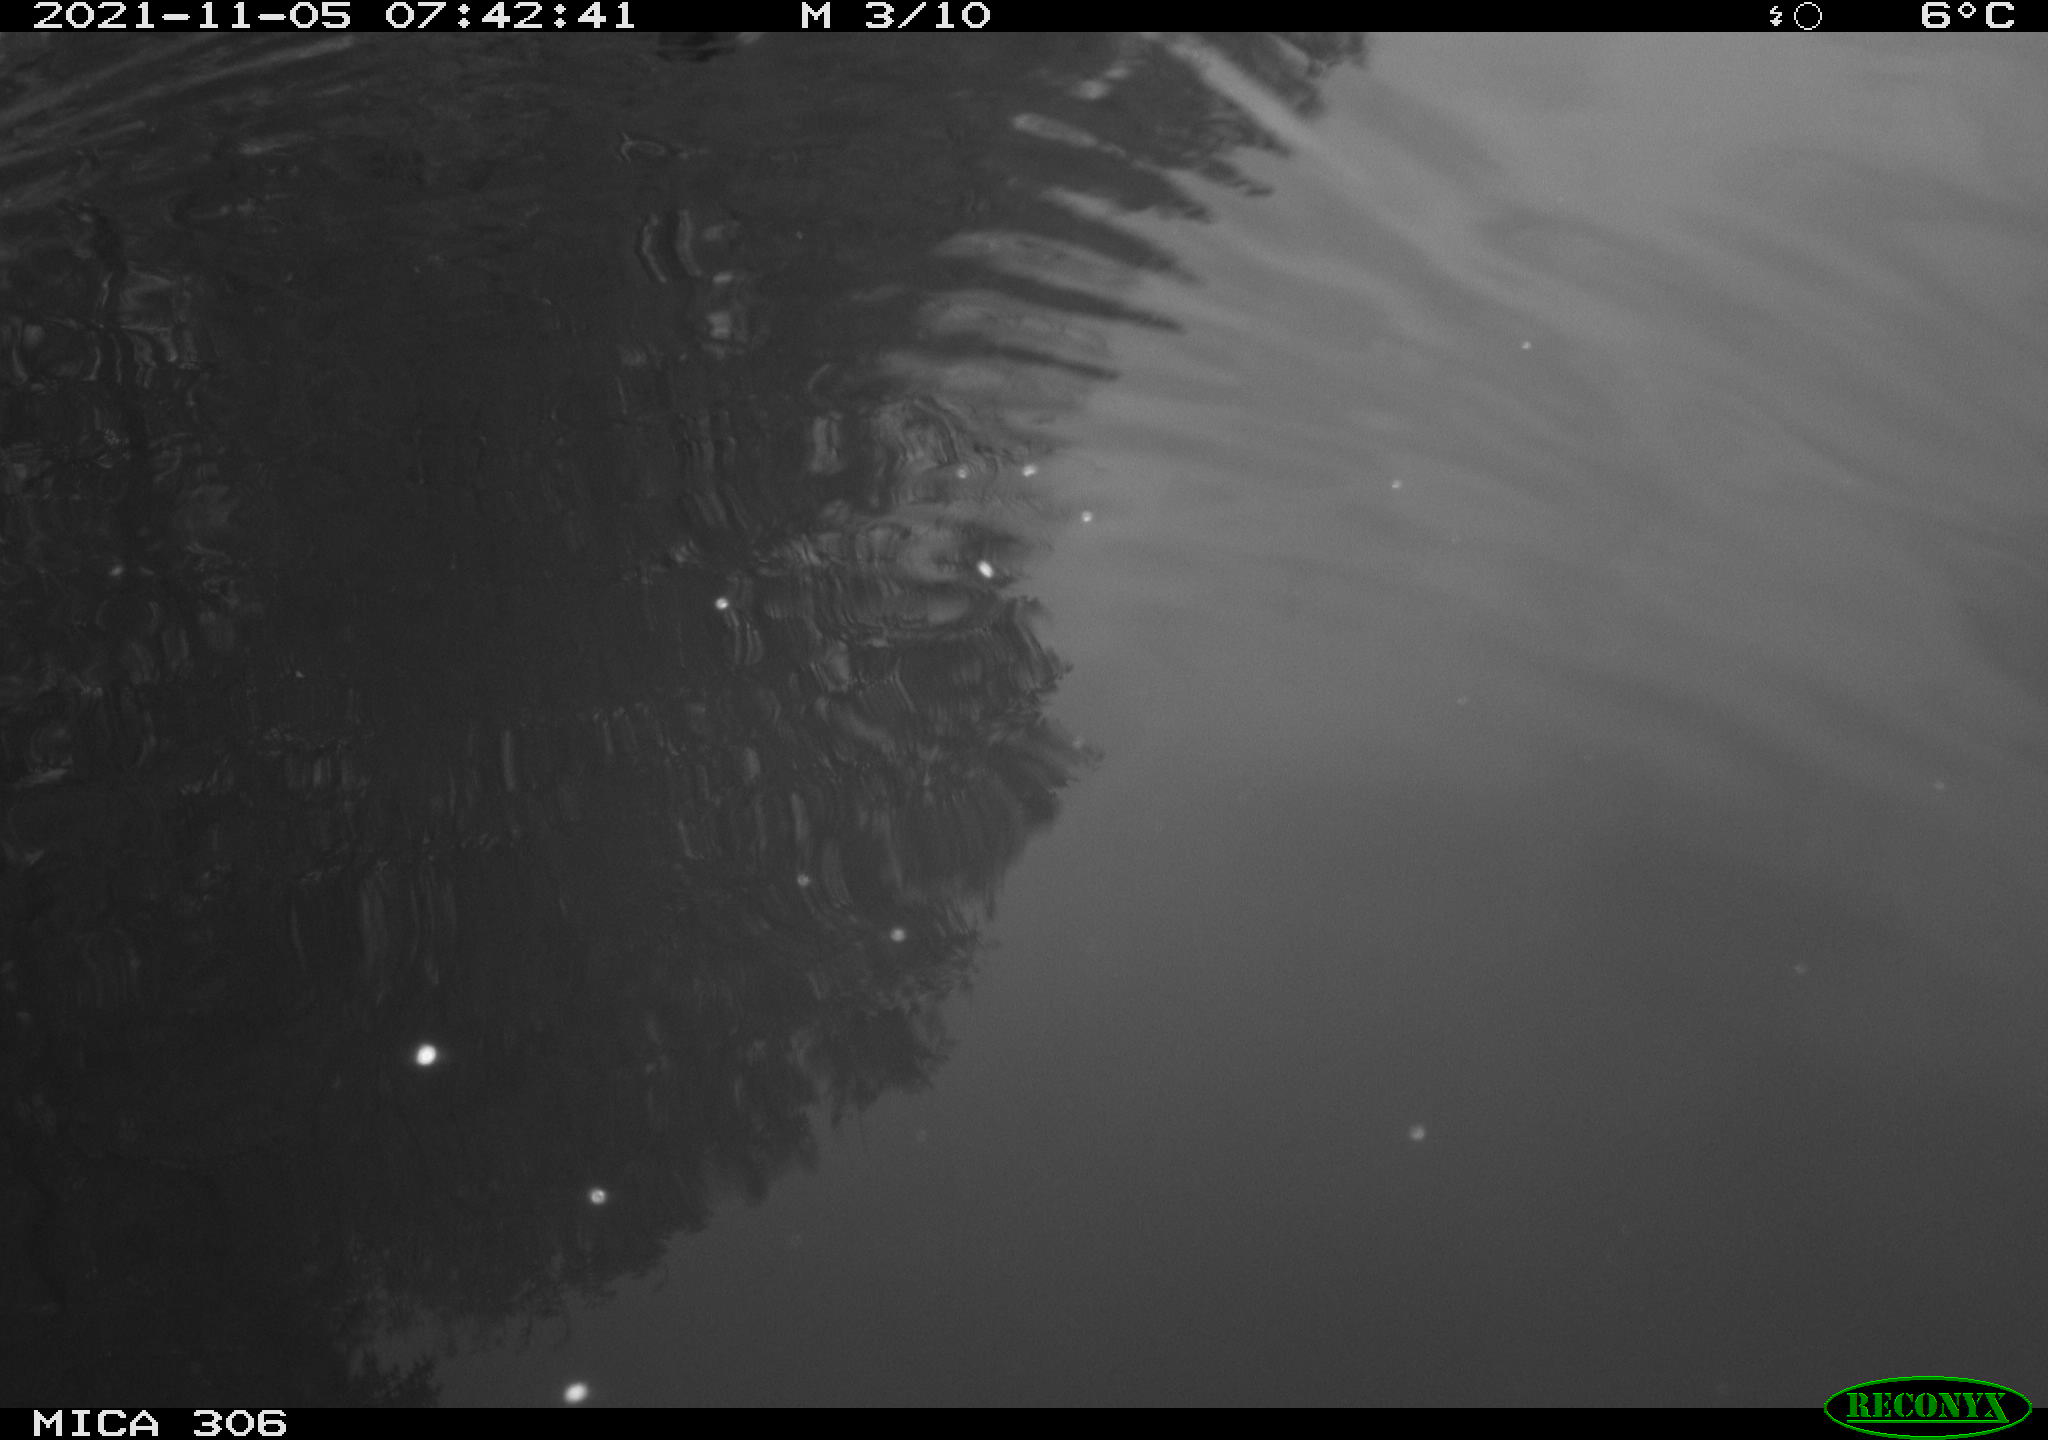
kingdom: Animalia
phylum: Chordata
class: Aves
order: Gruiformes
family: Rallidae
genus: Gallinula
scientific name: Gallinula chloropus
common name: Common moorhen
